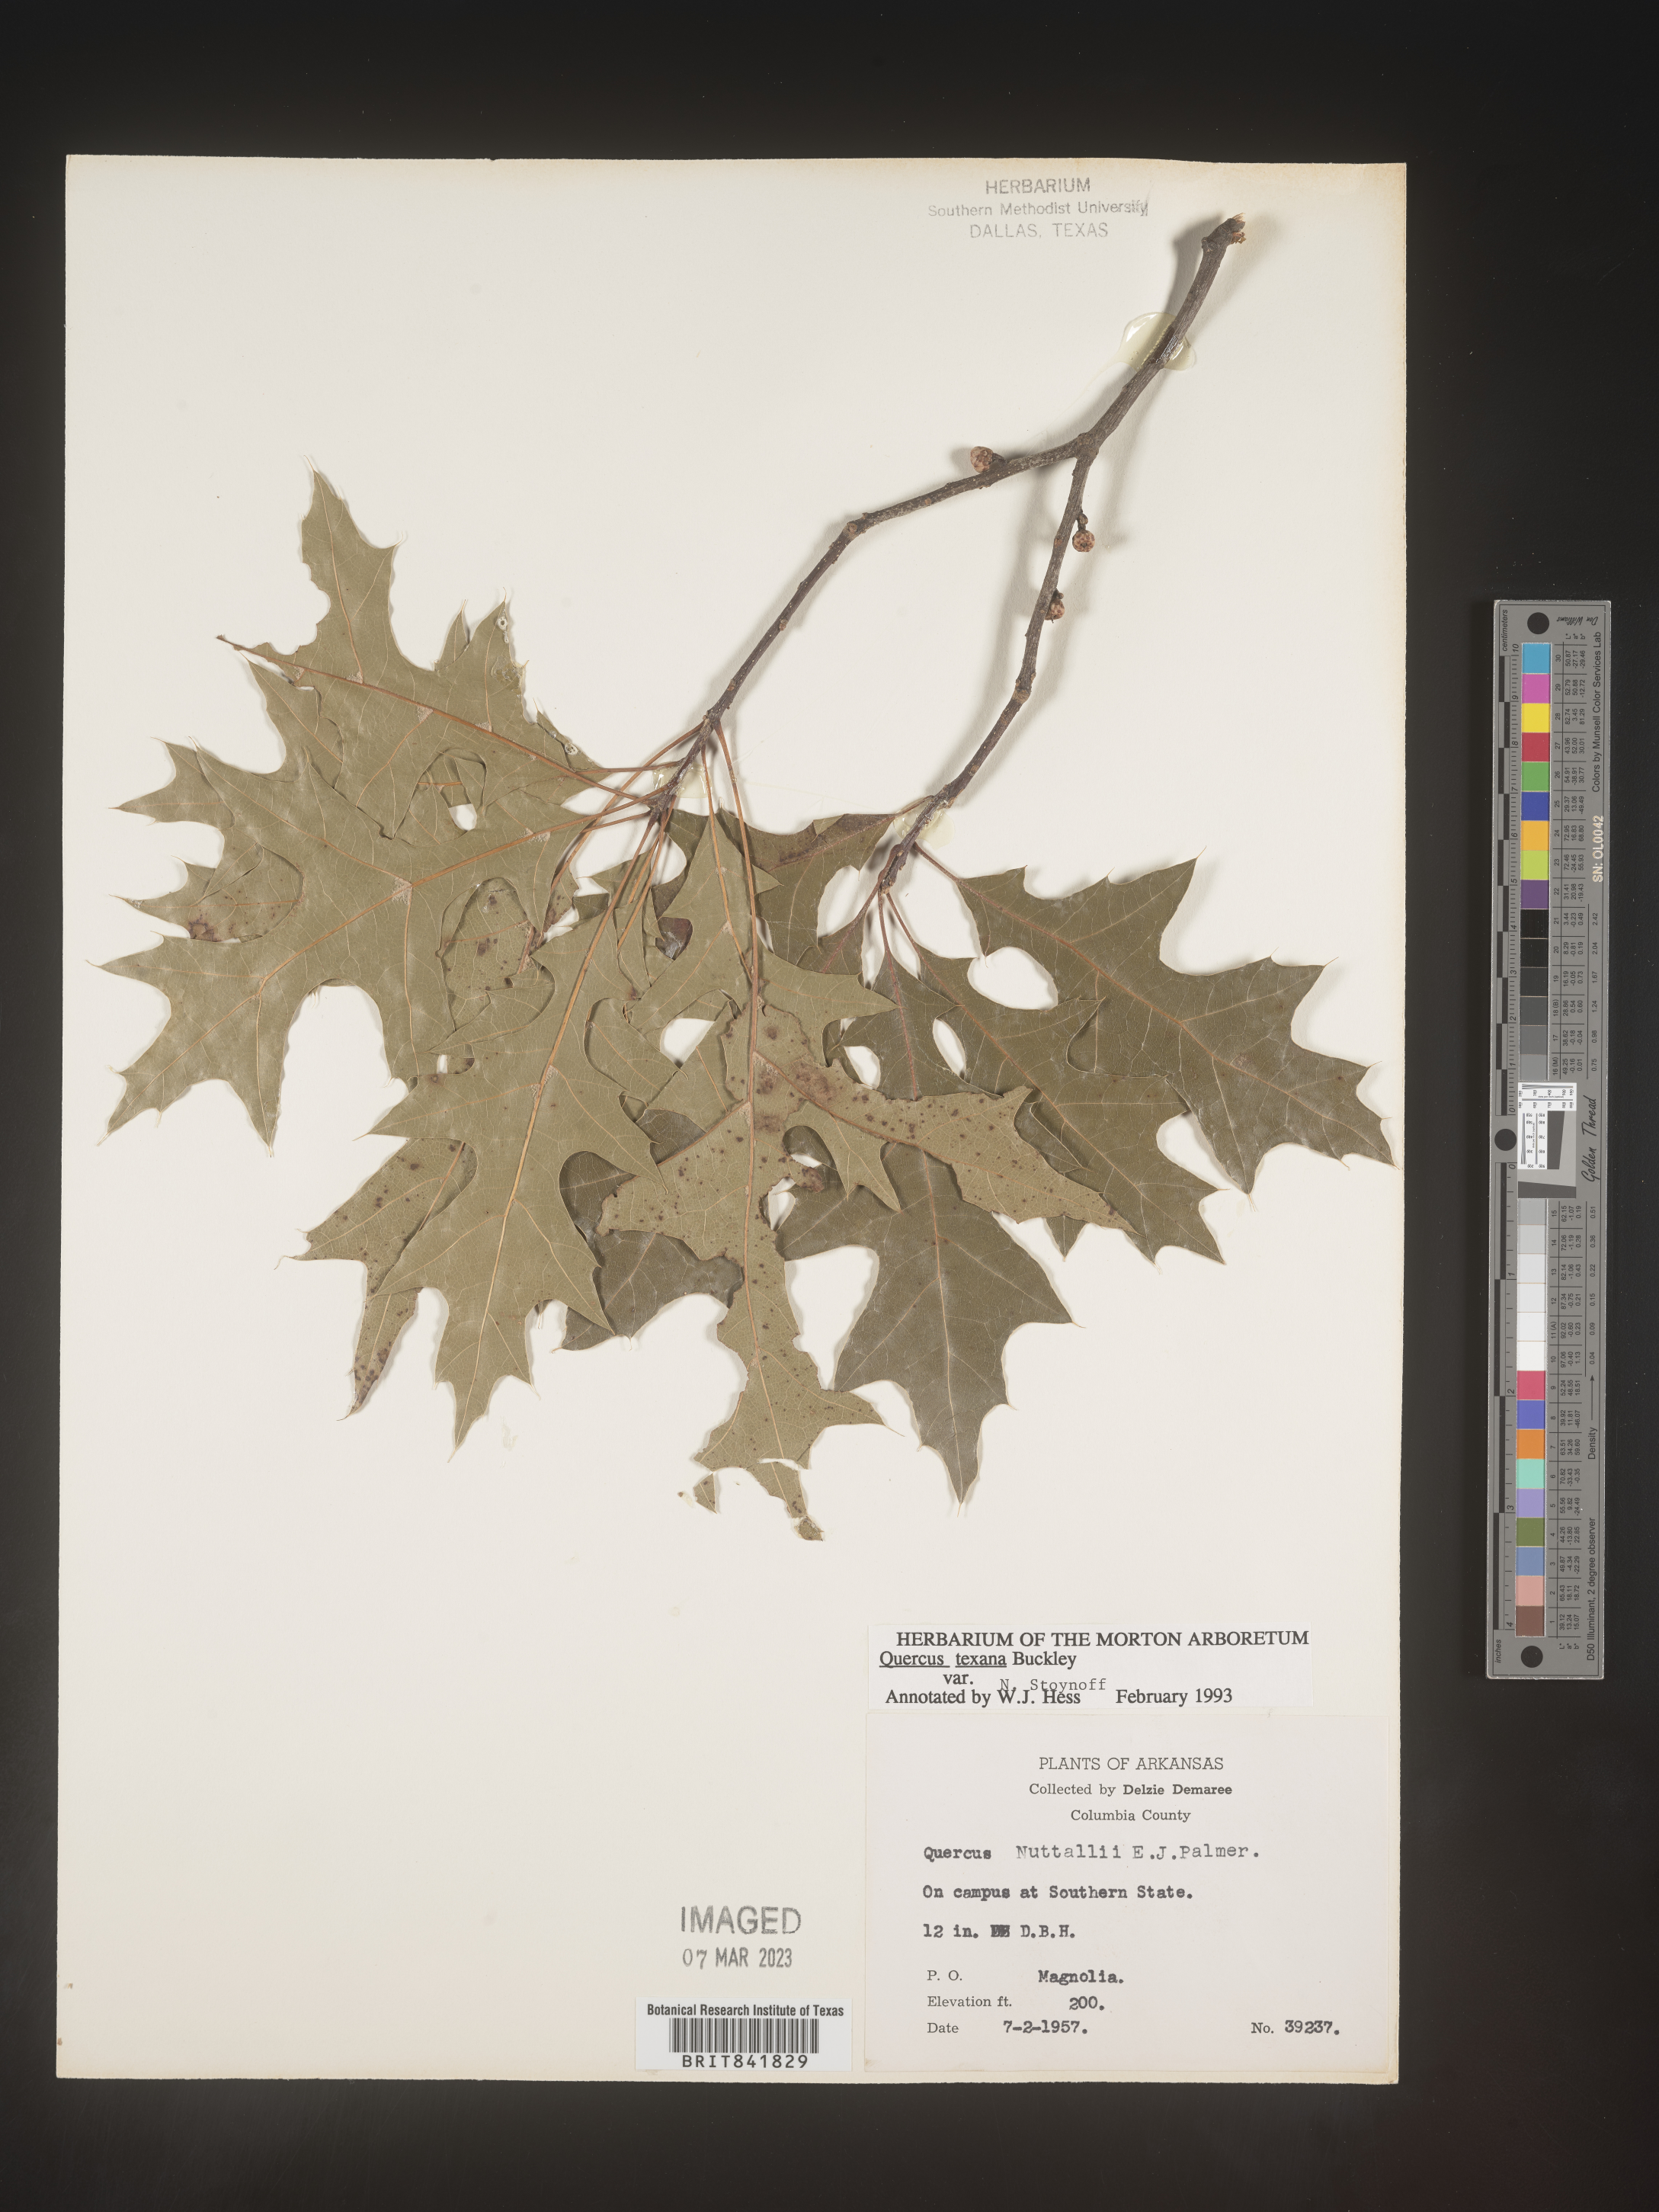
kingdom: Plantae
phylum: Tracheophyta
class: Magnoliopsida
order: Fagales
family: Fagaceae
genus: Quercus
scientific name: Quercus texana
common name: Nuttall oak
